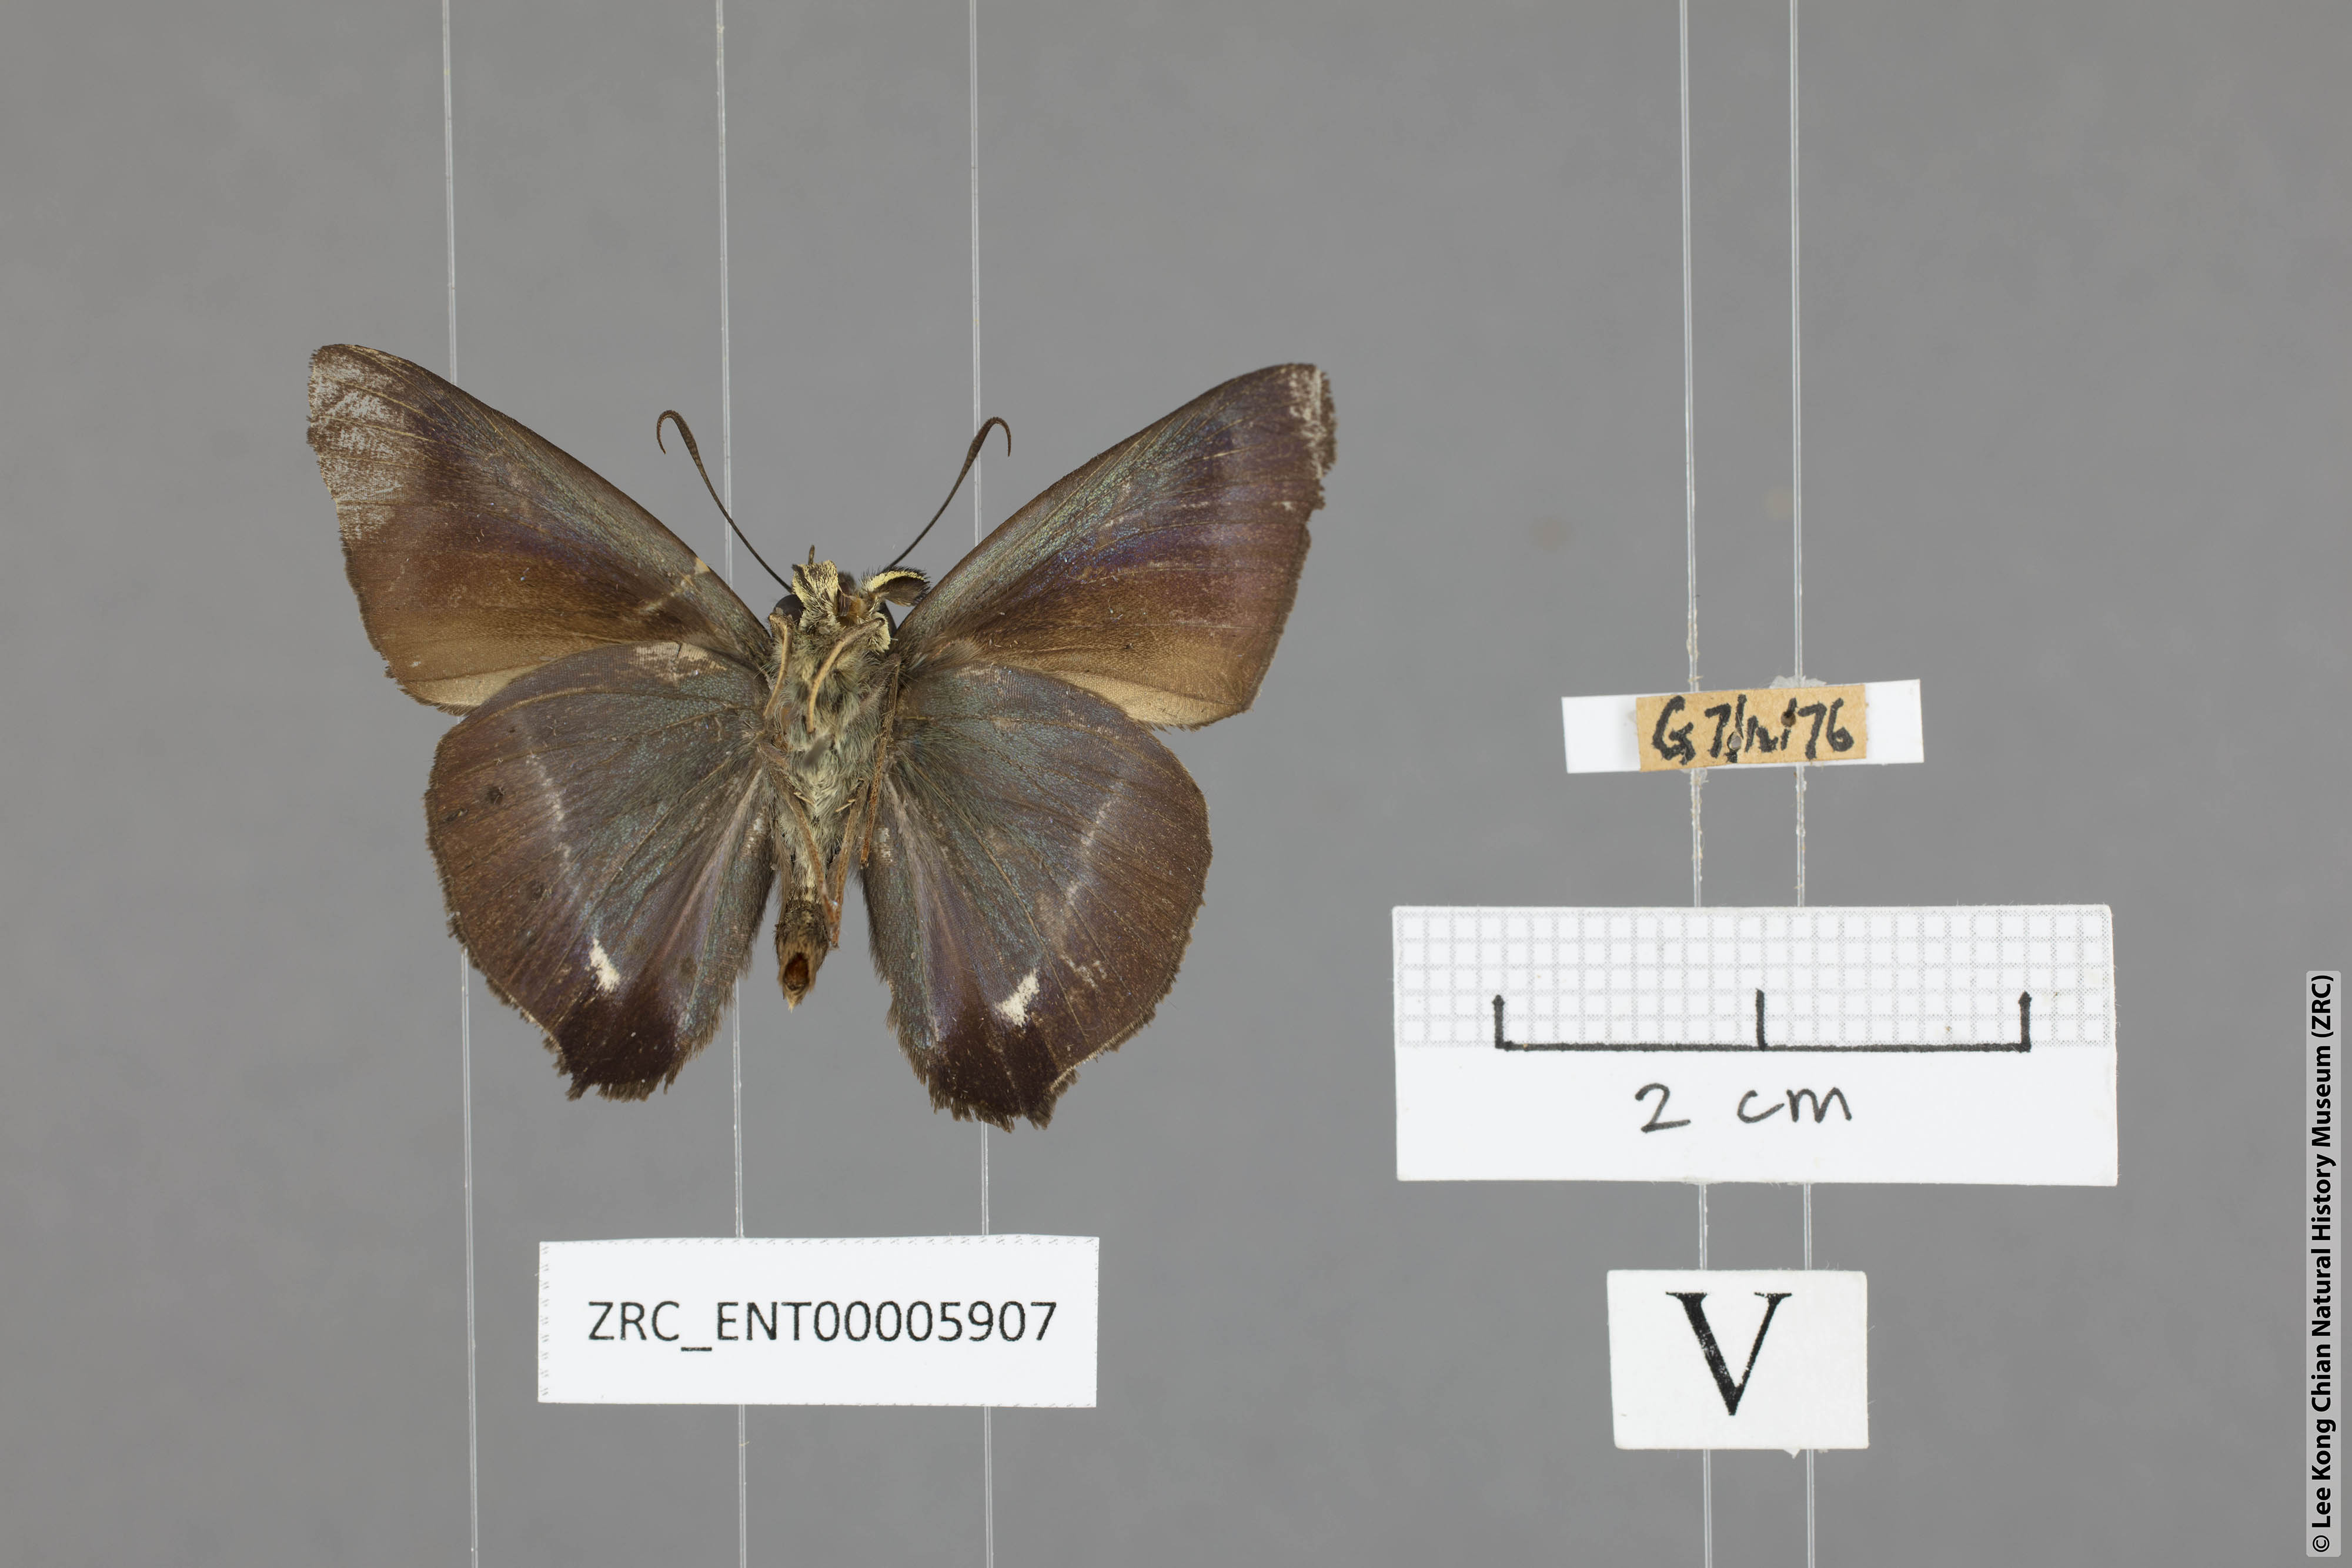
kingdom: Animalia
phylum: Arthropoda
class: Insecta
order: Lepidoptera
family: Hesperiidae
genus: Hasora
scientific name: Hasora taminatus
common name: White banded awl
